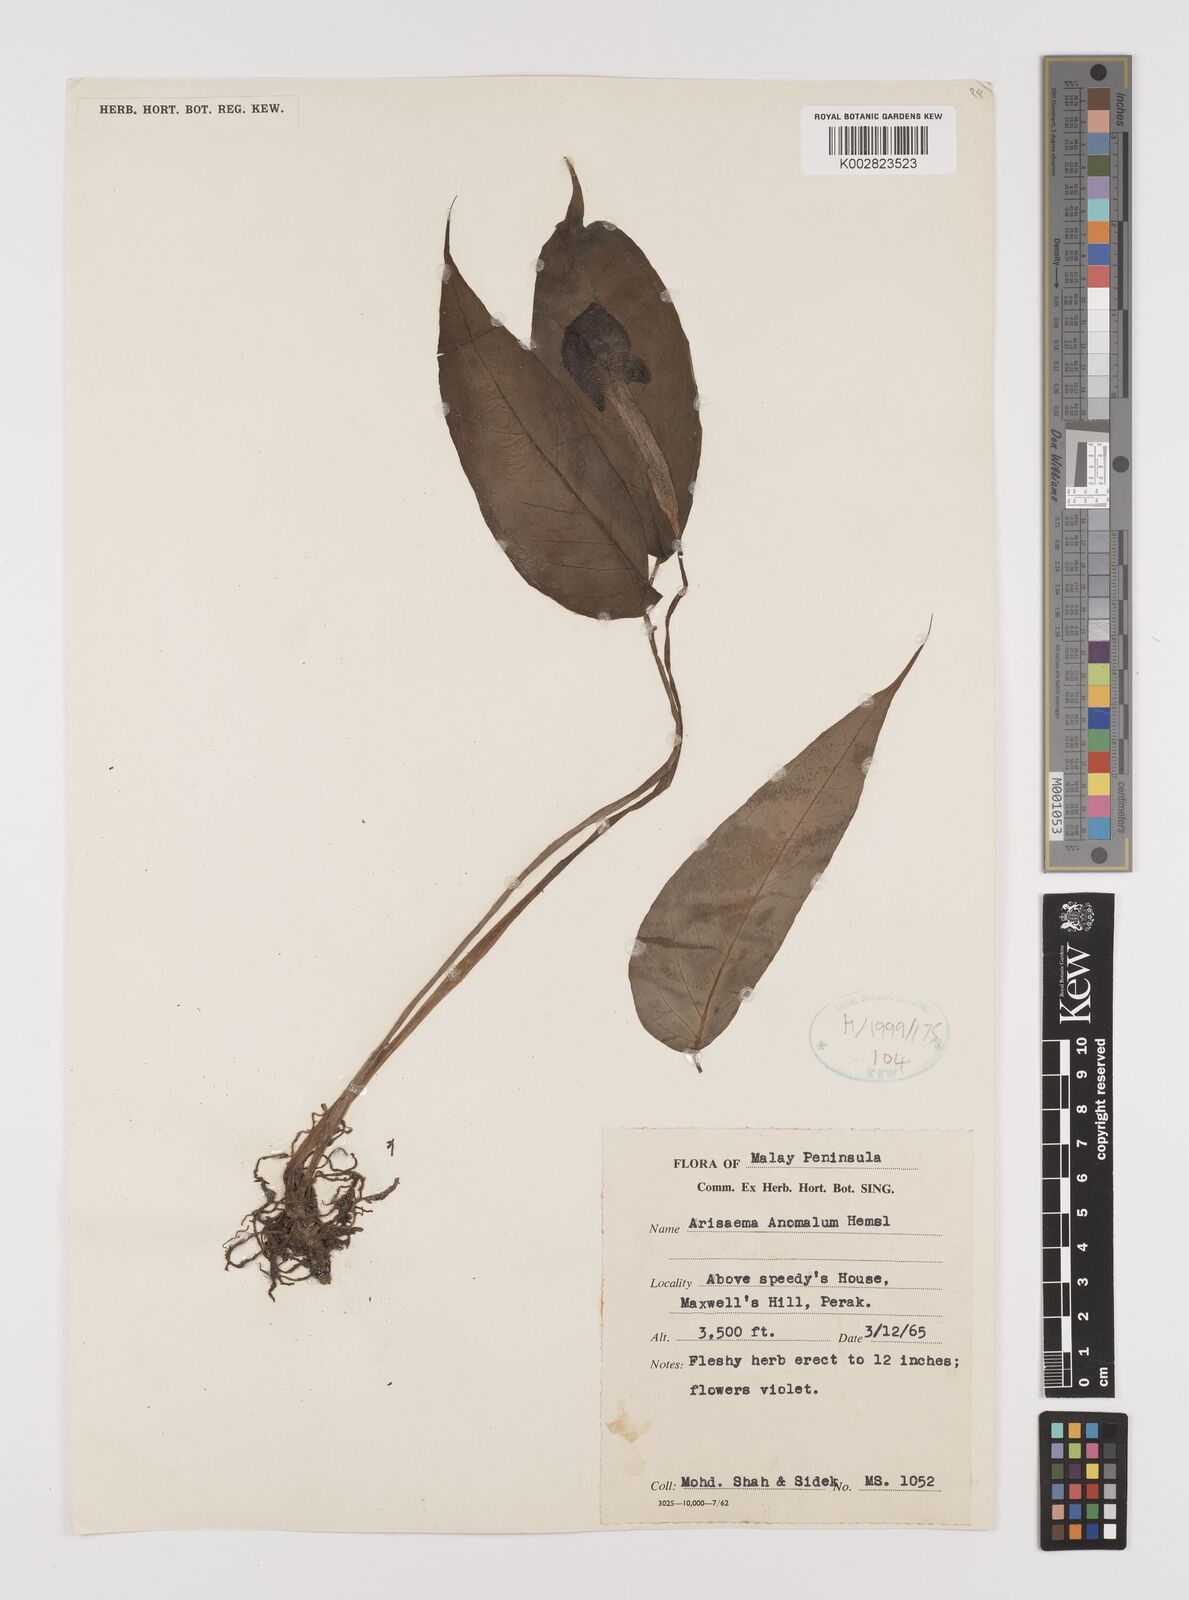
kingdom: Plantae
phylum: Tracheophyta
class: Liliopsida
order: Alismatales
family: Araceae
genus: Arisaema
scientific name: Arisaema anomalum
